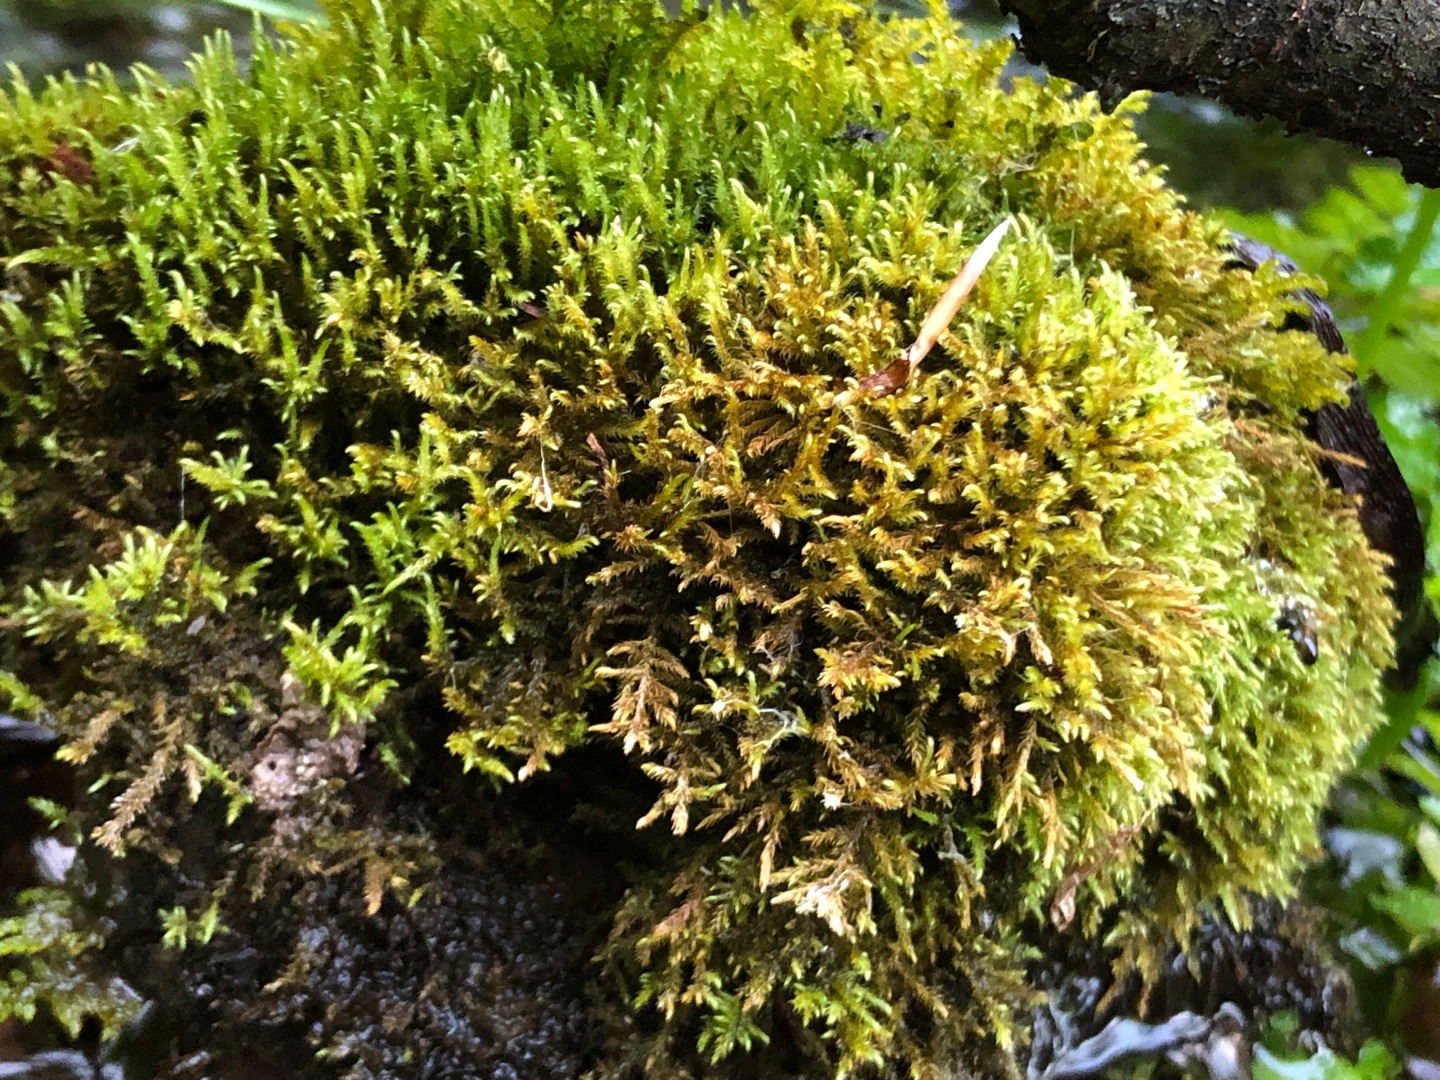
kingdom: Plantae
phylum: Bryophyta
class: Bryopsida
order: Hypnales
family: Amblystegiaceae
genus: Cratoneuron
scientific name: Cratoneuron filicinum
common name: Grøn eremitmos
